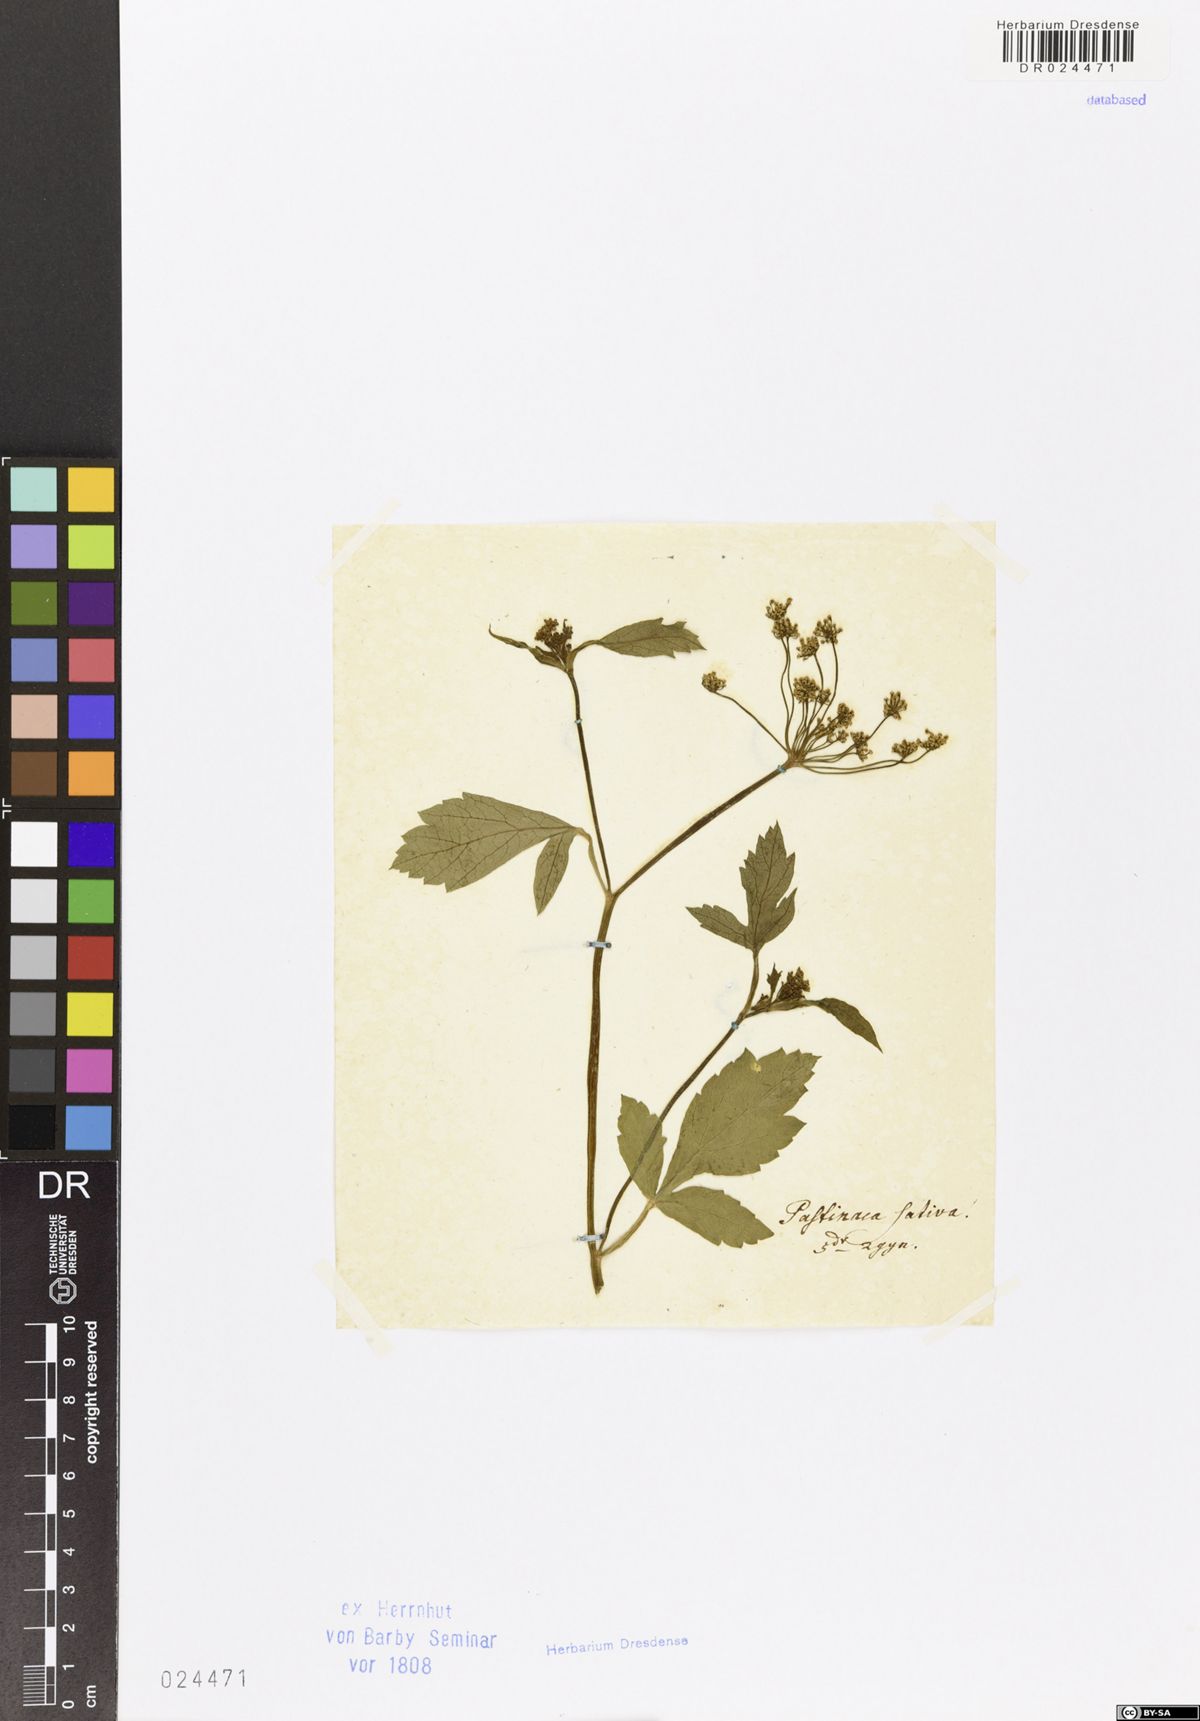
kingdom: Plantae
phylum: Tracheophyta
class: Magnoliopsida
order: Apiales
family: Apiaceae
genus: Pastinaca
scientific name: Pastinaca sativa
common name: Wild parsnip
